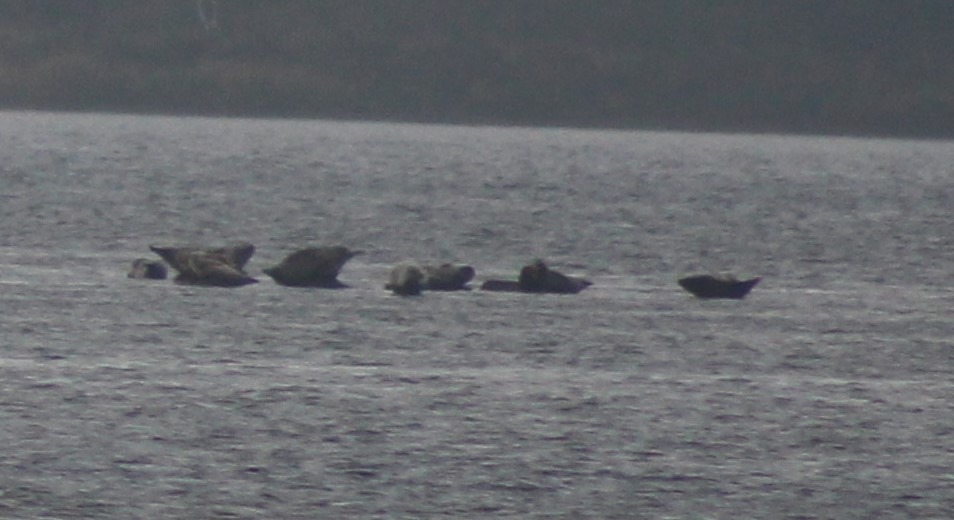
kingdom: Animalia
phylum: Chordata
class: Mammalia
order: Carnivora
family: Phocidae
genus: Phoca
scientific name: Phoca vitulina
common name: Spættet sæl
